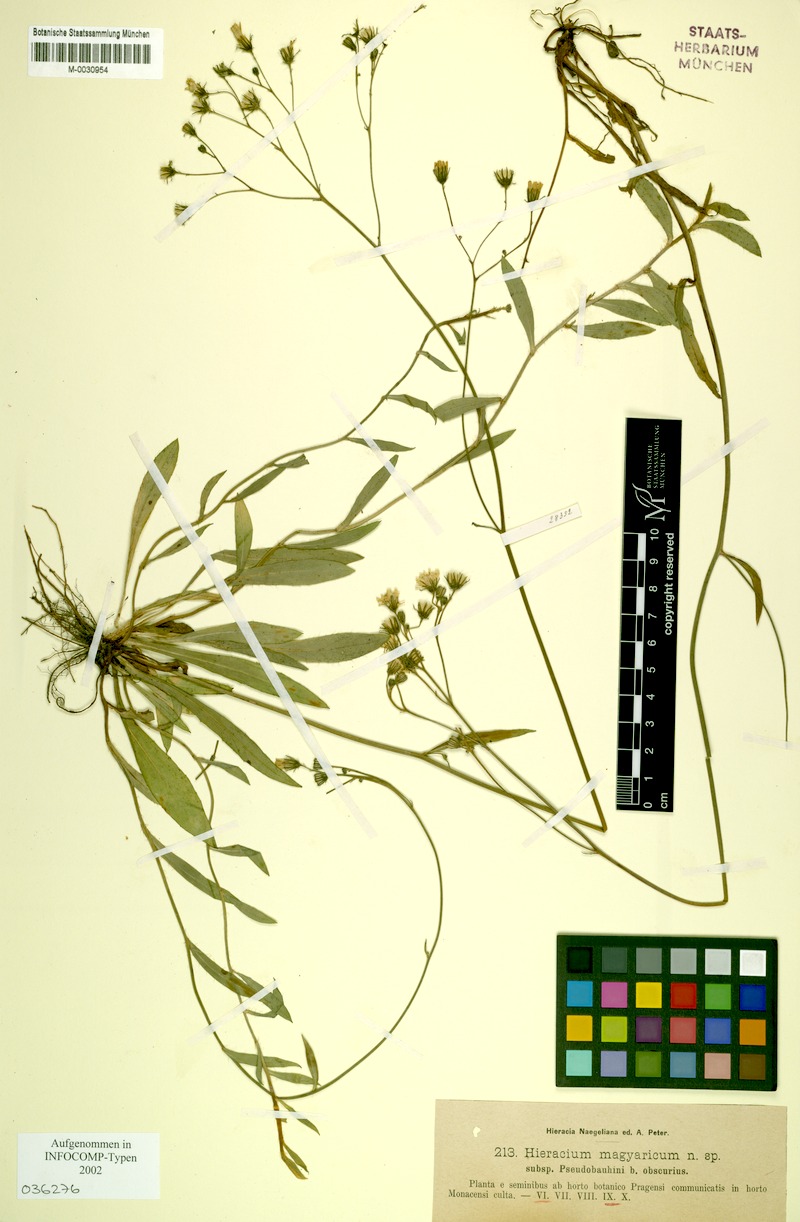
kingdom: Plantae
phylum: Tracheophyta
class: Magnoliopsida
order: Asterales
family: Asteraceae
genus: Pilosella
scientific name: Pilosella bauhini
